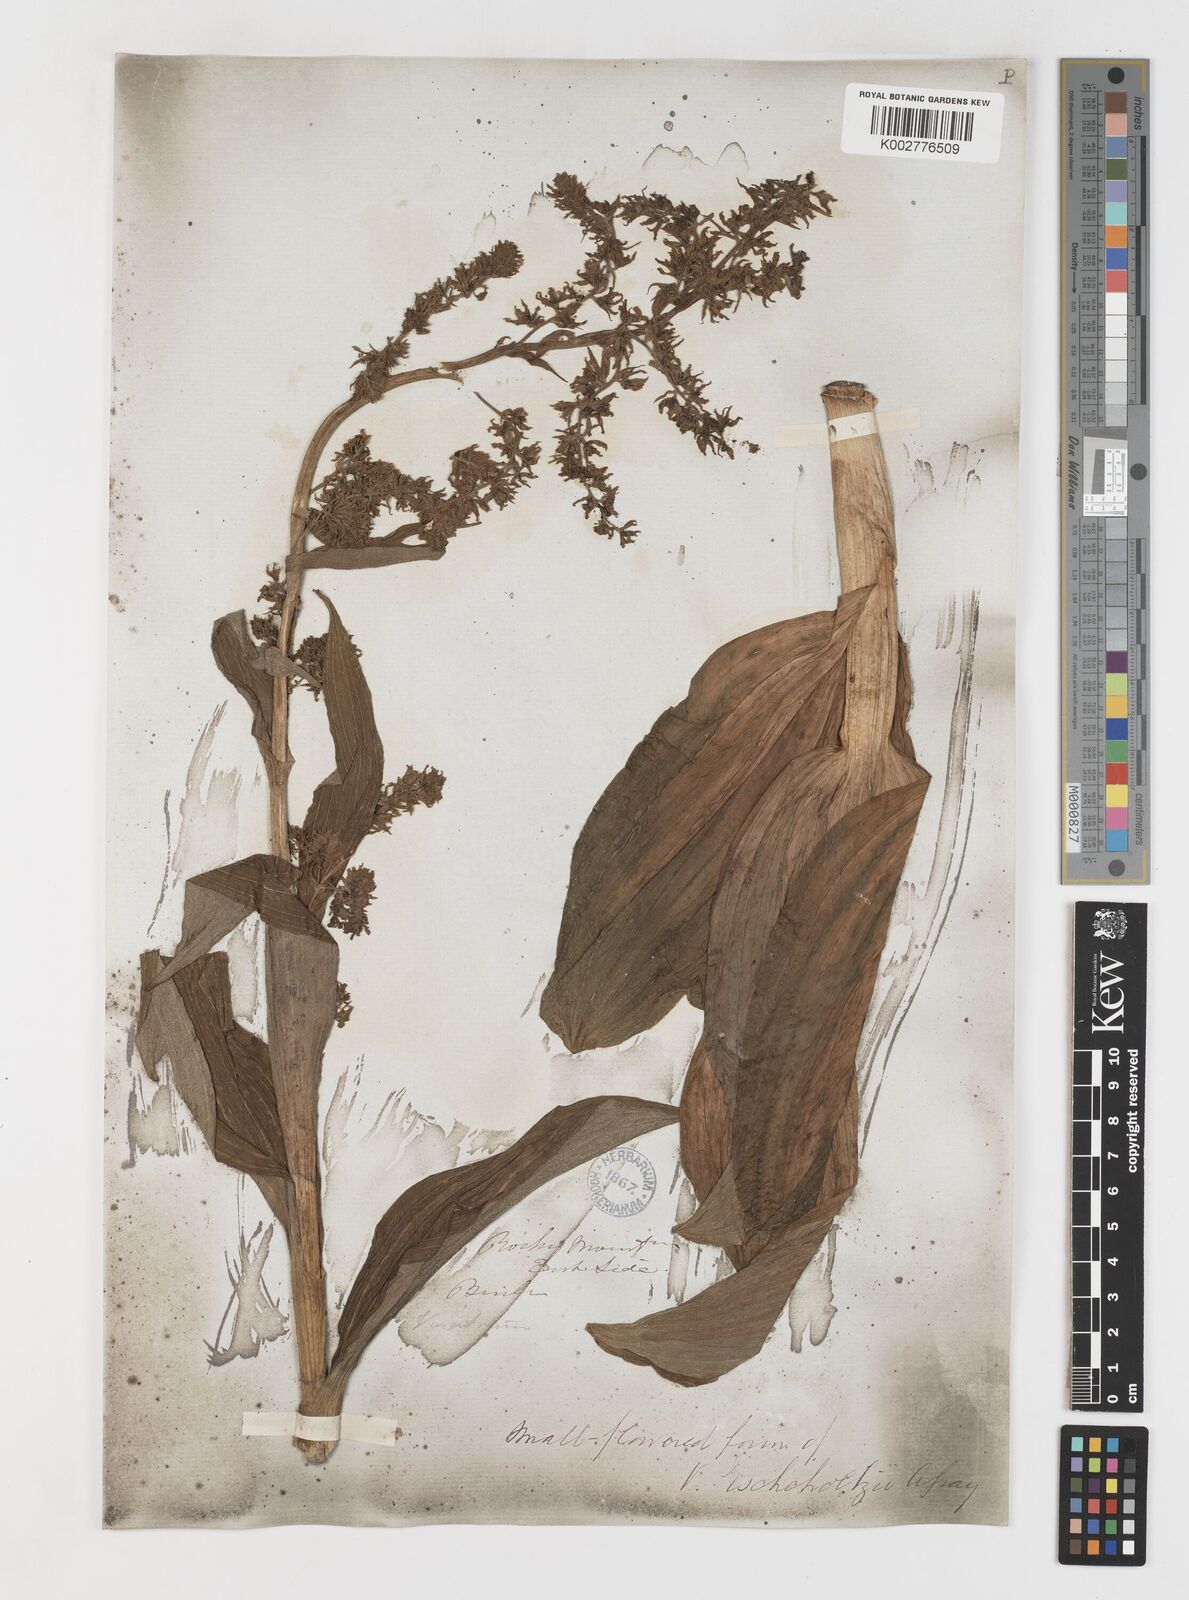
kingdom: Plantae
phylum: Tracheophyta
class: Liliopsida
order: Liliales
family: Melanthiaceae
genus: Veratrum
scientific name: Veratrum viride
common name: American false hellebore
